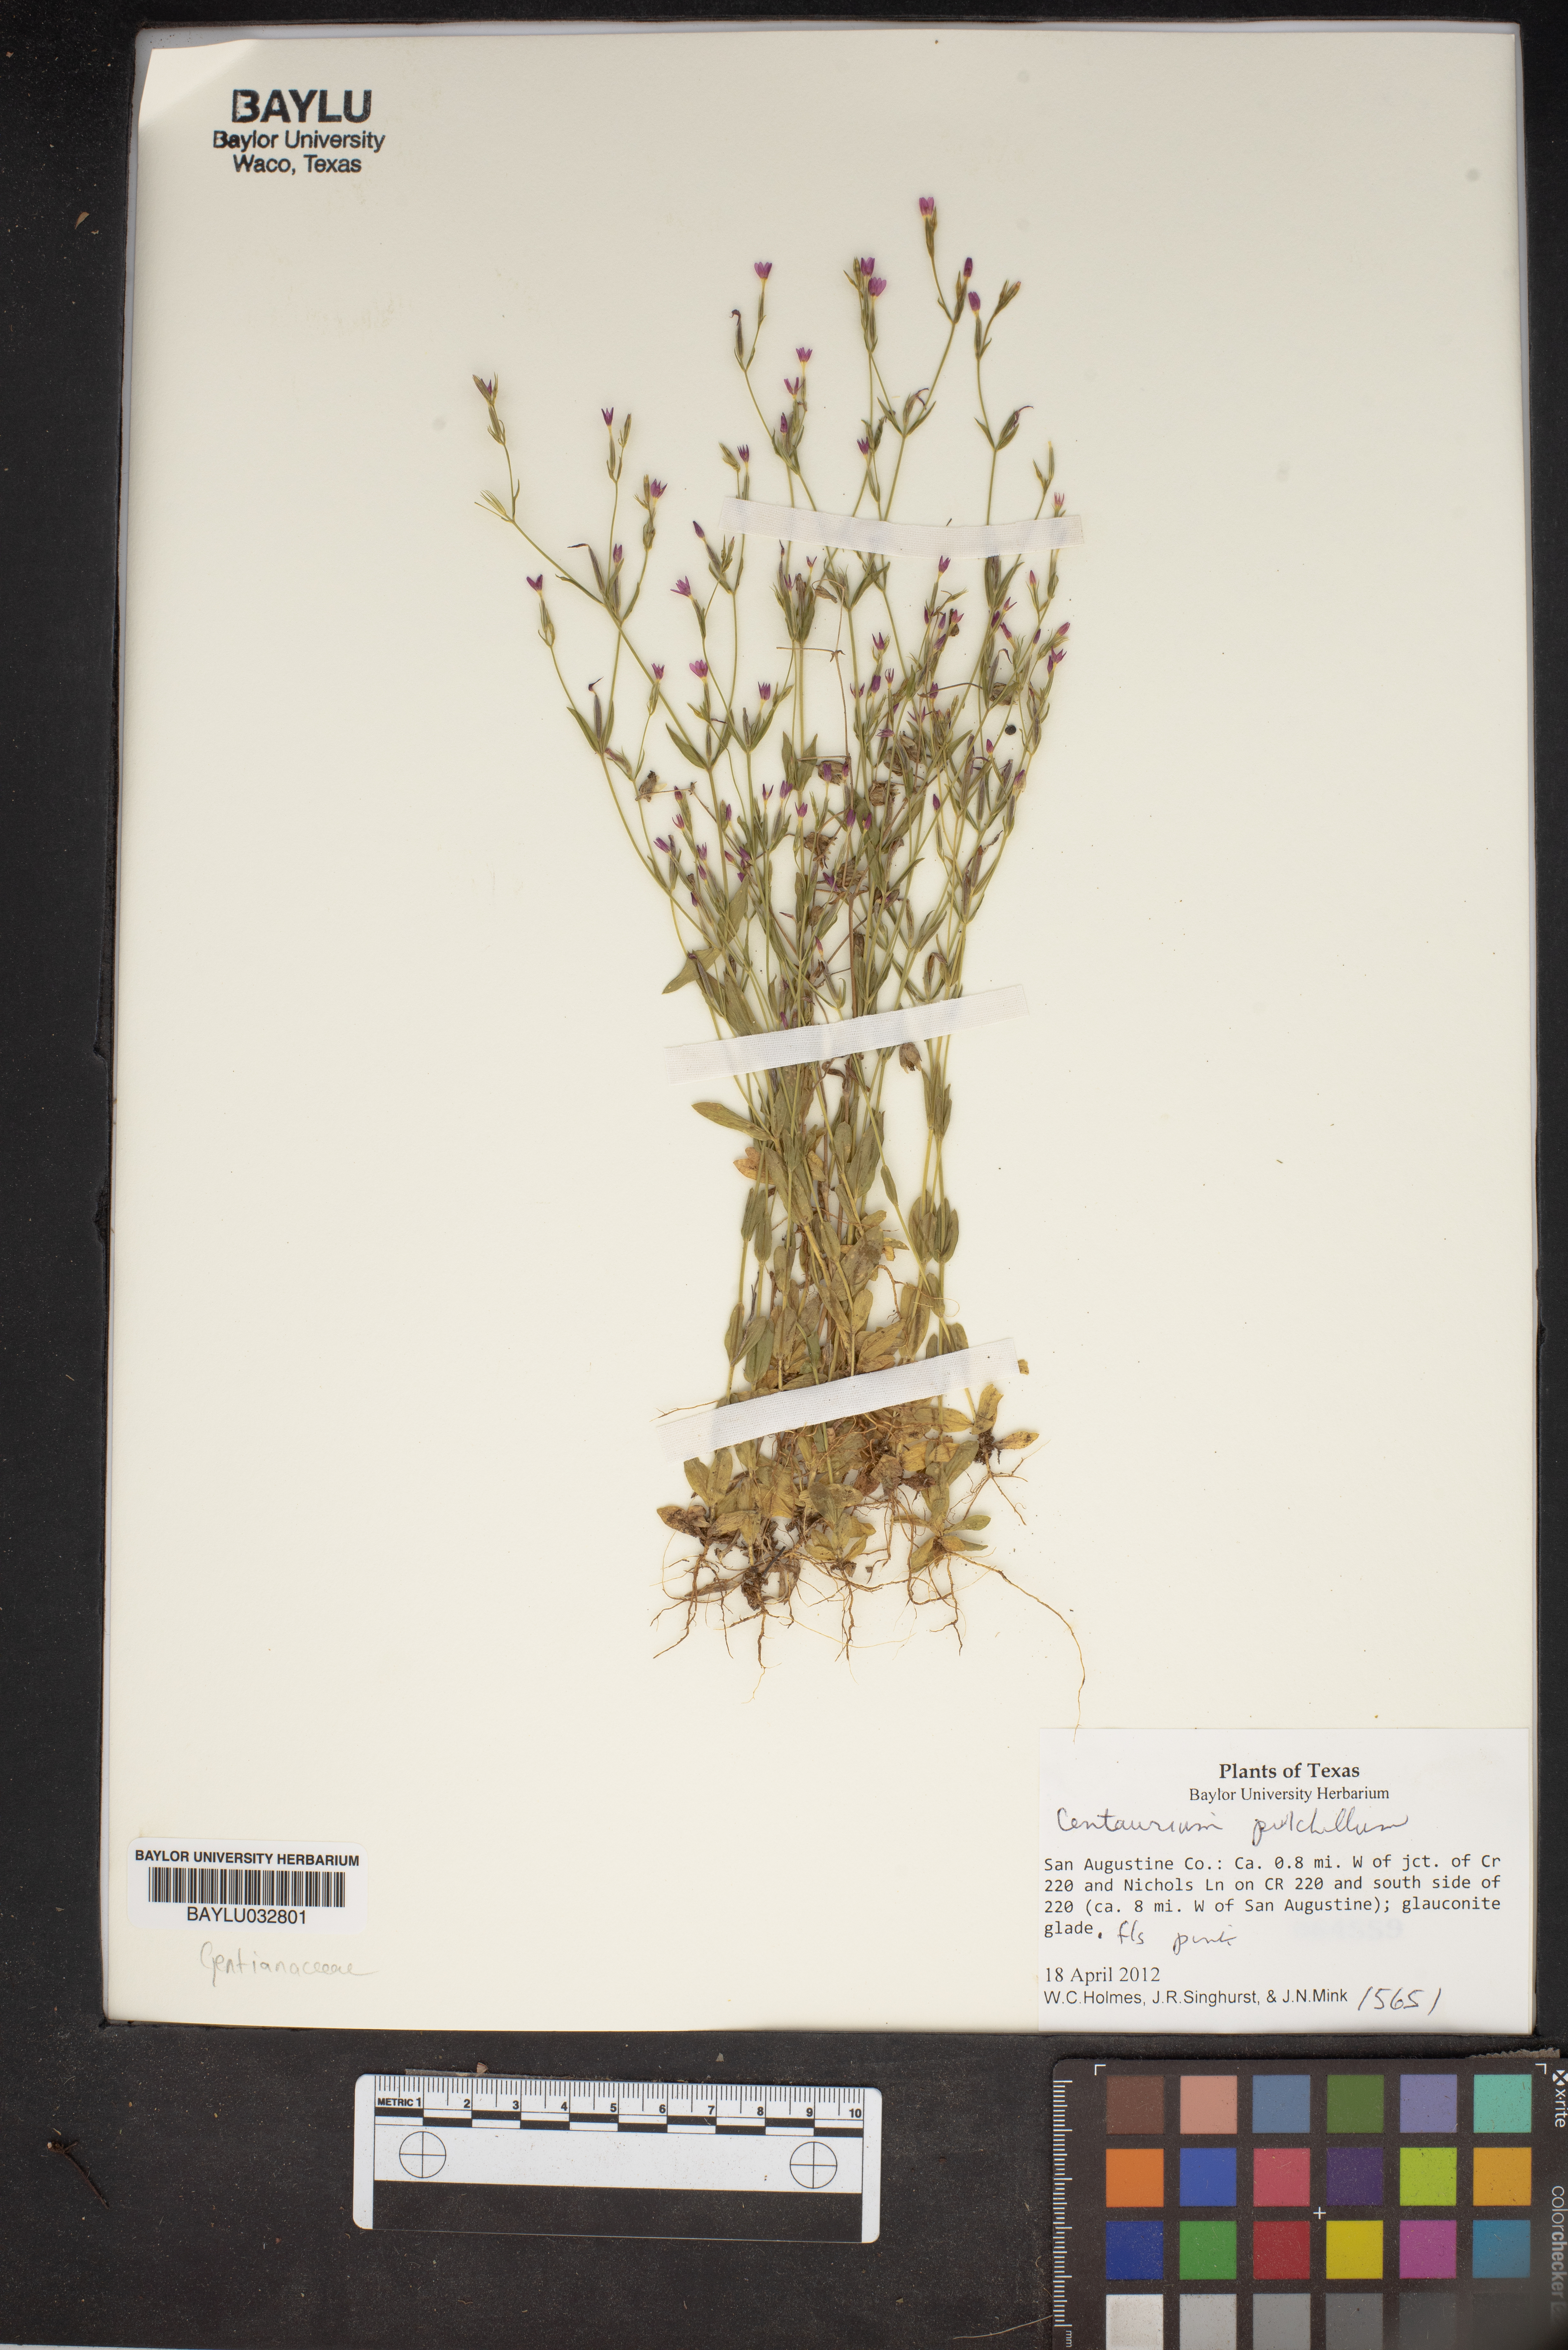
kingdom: Plantae
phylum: Tracheophyta
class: Magnoliopsida
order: Gentianales
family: Gentianaceae
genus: Centaurium
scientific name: Centaurium pulchellum
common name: Lesser centaury
